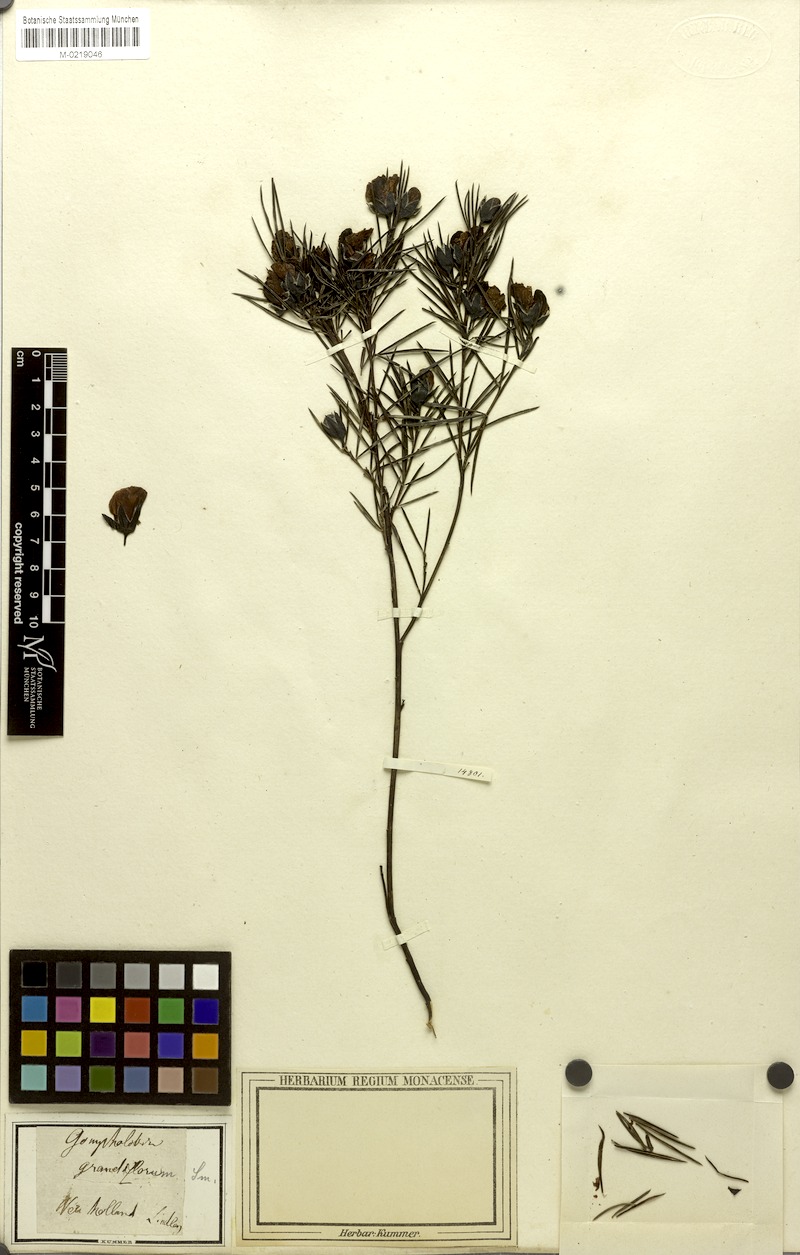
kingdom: Plantae
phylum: Tracheophyta
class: Magnoliopsida
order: Fabales
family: Fabaceae
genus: Gompholobium
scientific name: Gompholobium grandiflorum
